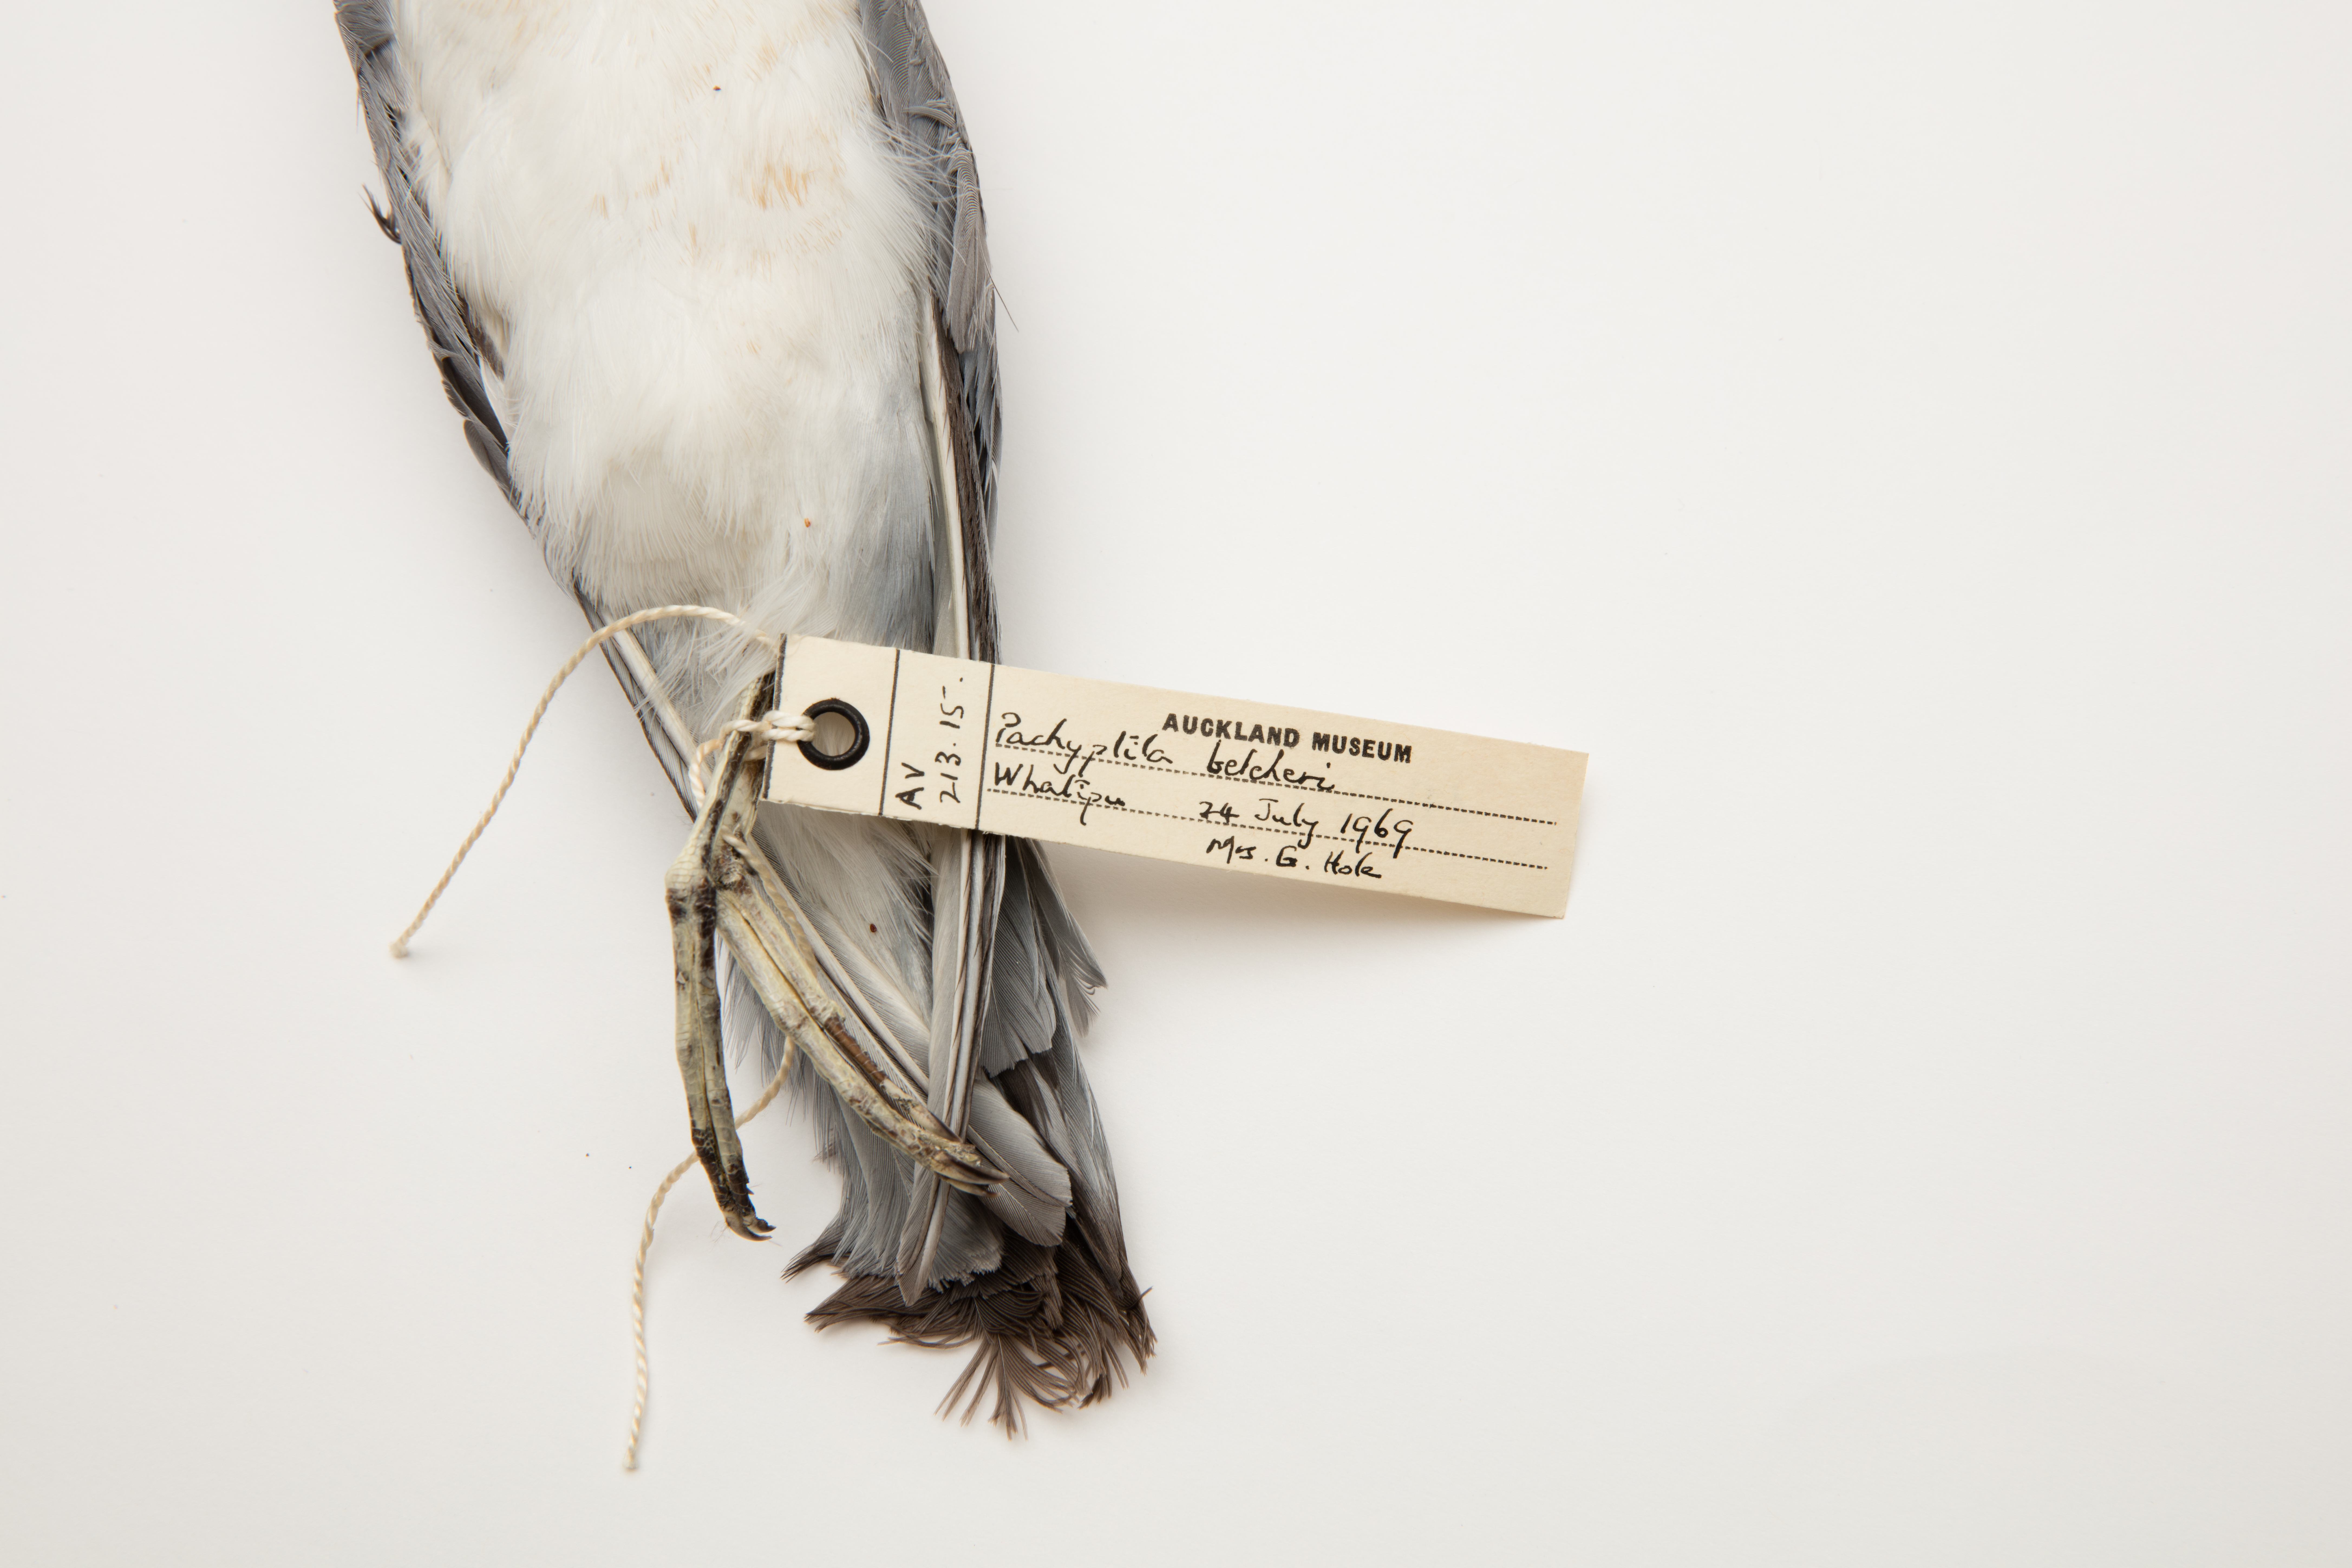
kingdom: Animalia
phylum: Chordata
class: Aves
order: Procellariiformes
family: Procellariidae
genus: Pachyptila
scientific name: Pachyptila belcheri
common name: Slender-billed prion
